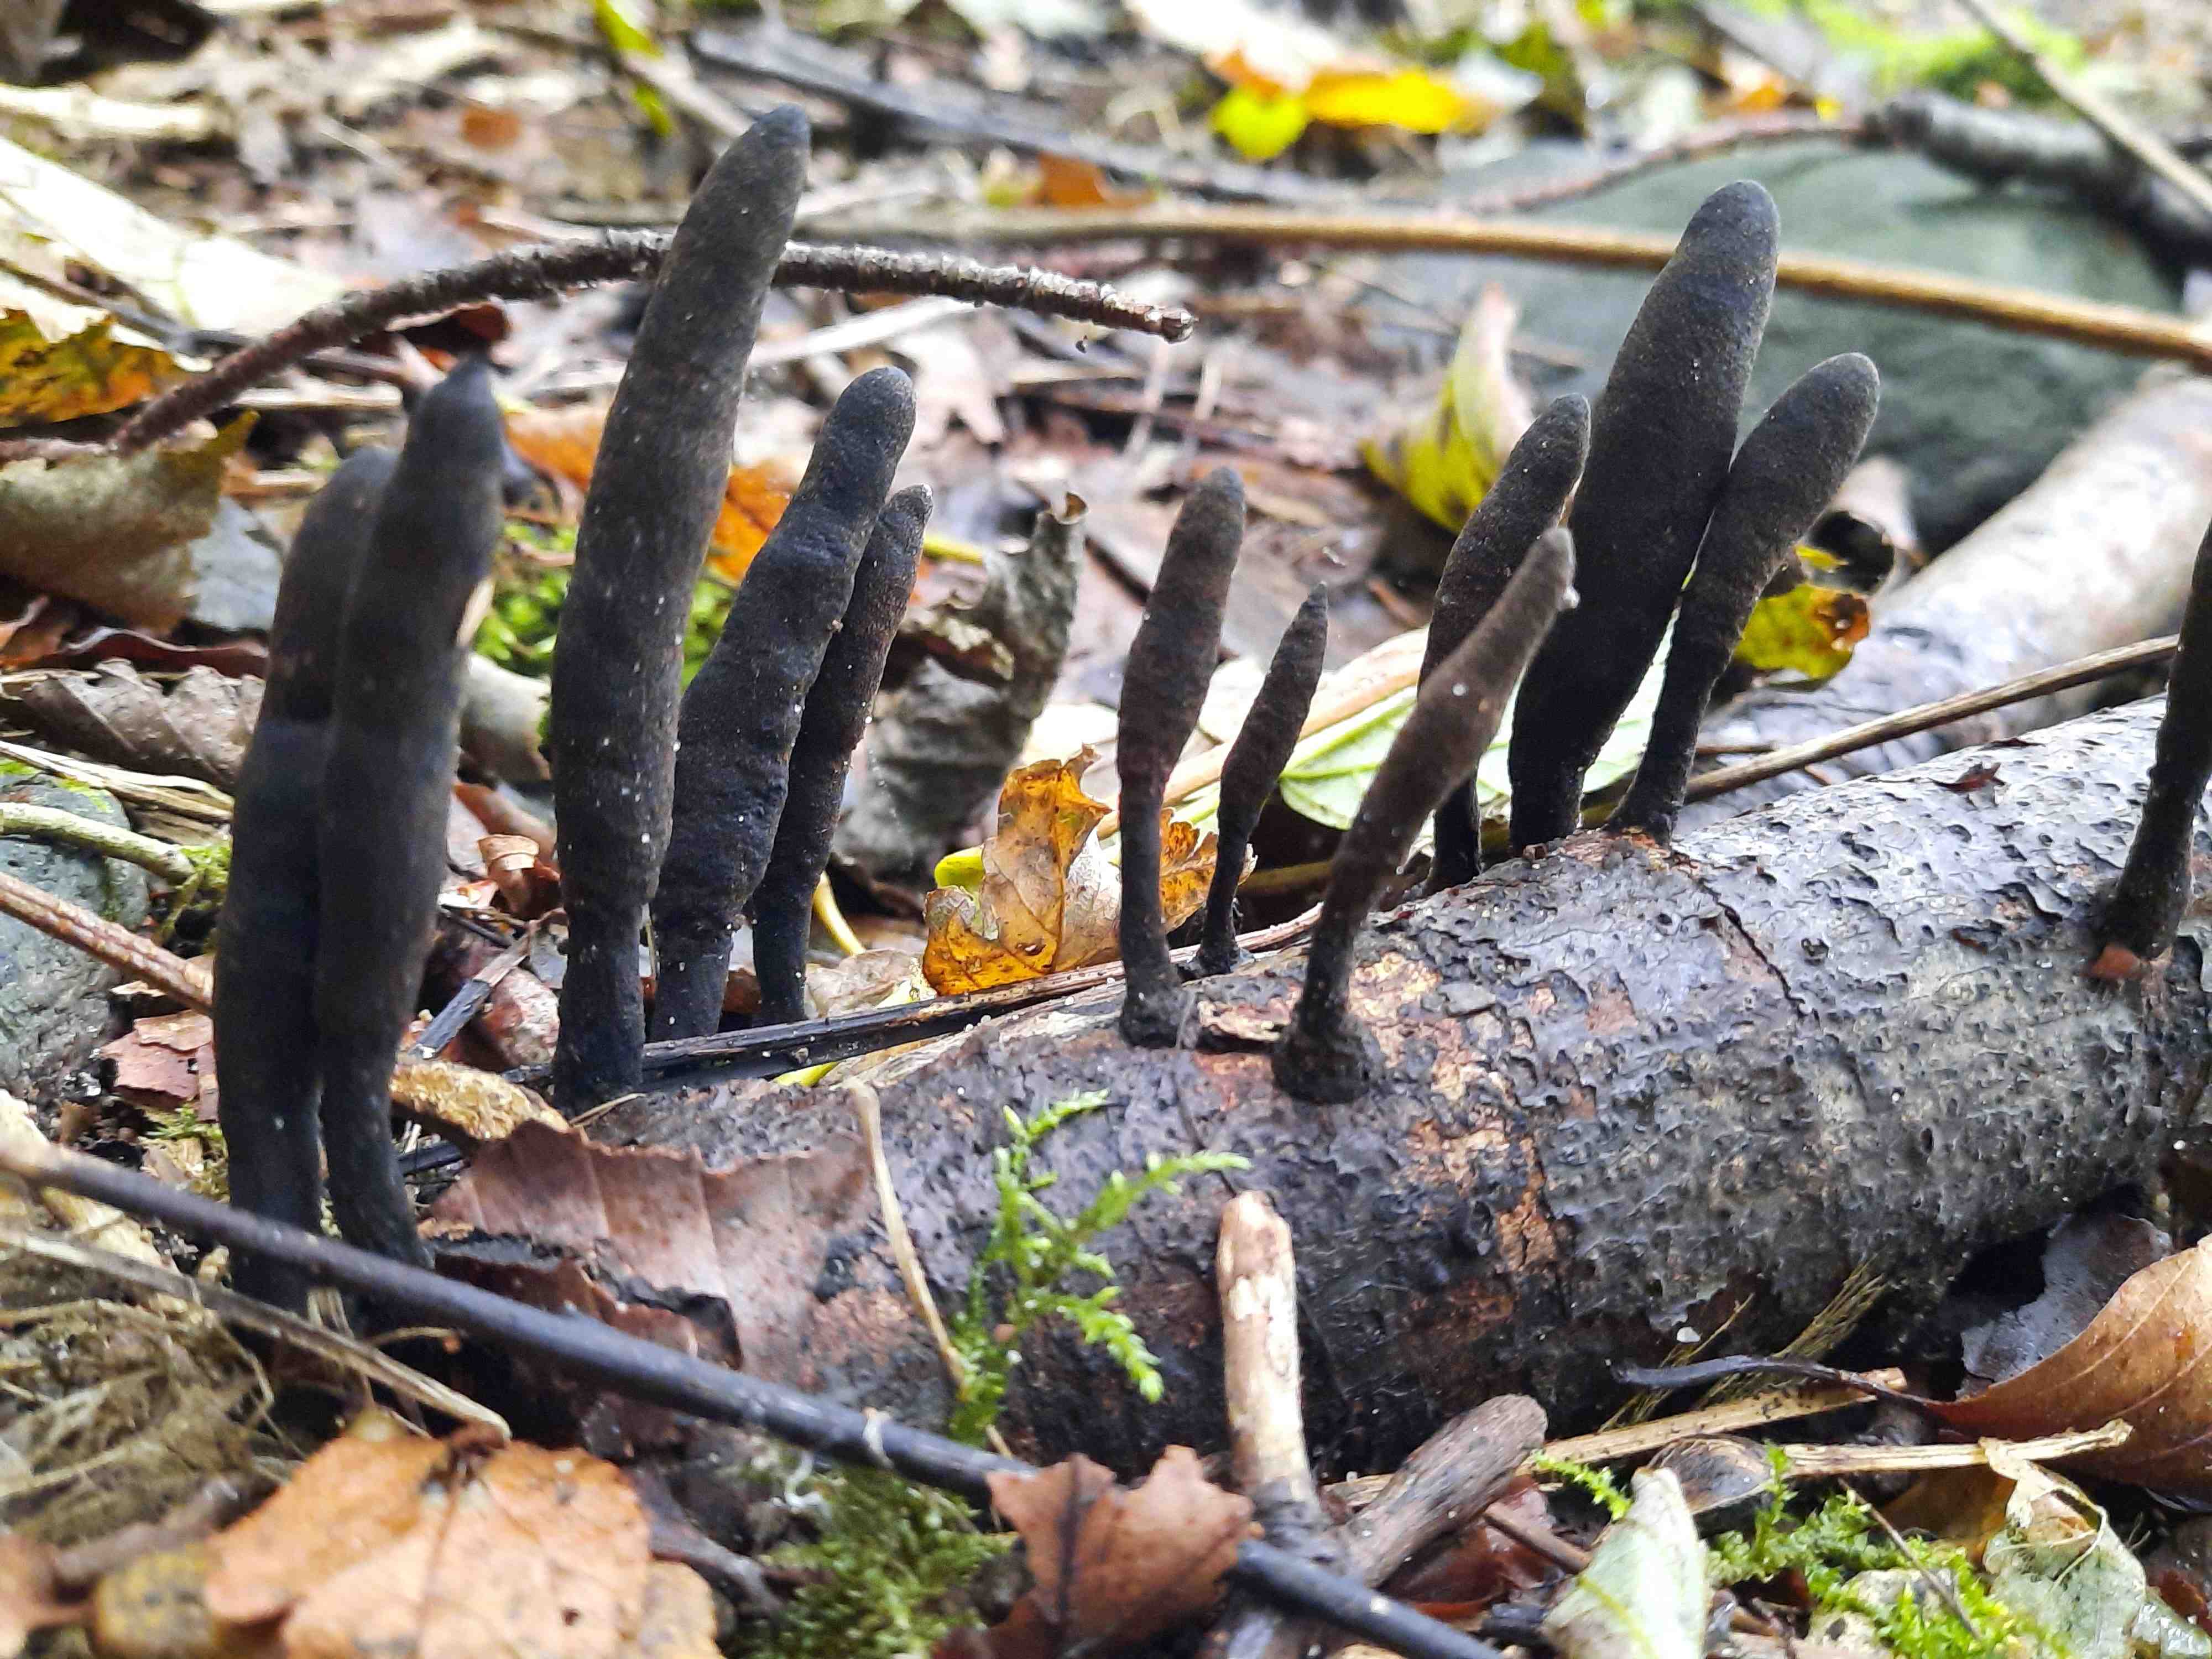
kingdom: Fungi
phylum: Ascomycota
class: Sordariomycetes
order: Xylariales
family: Xylariaceae
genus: Xylaria
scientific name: Xylaria longipes
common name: slank stødsvamp
